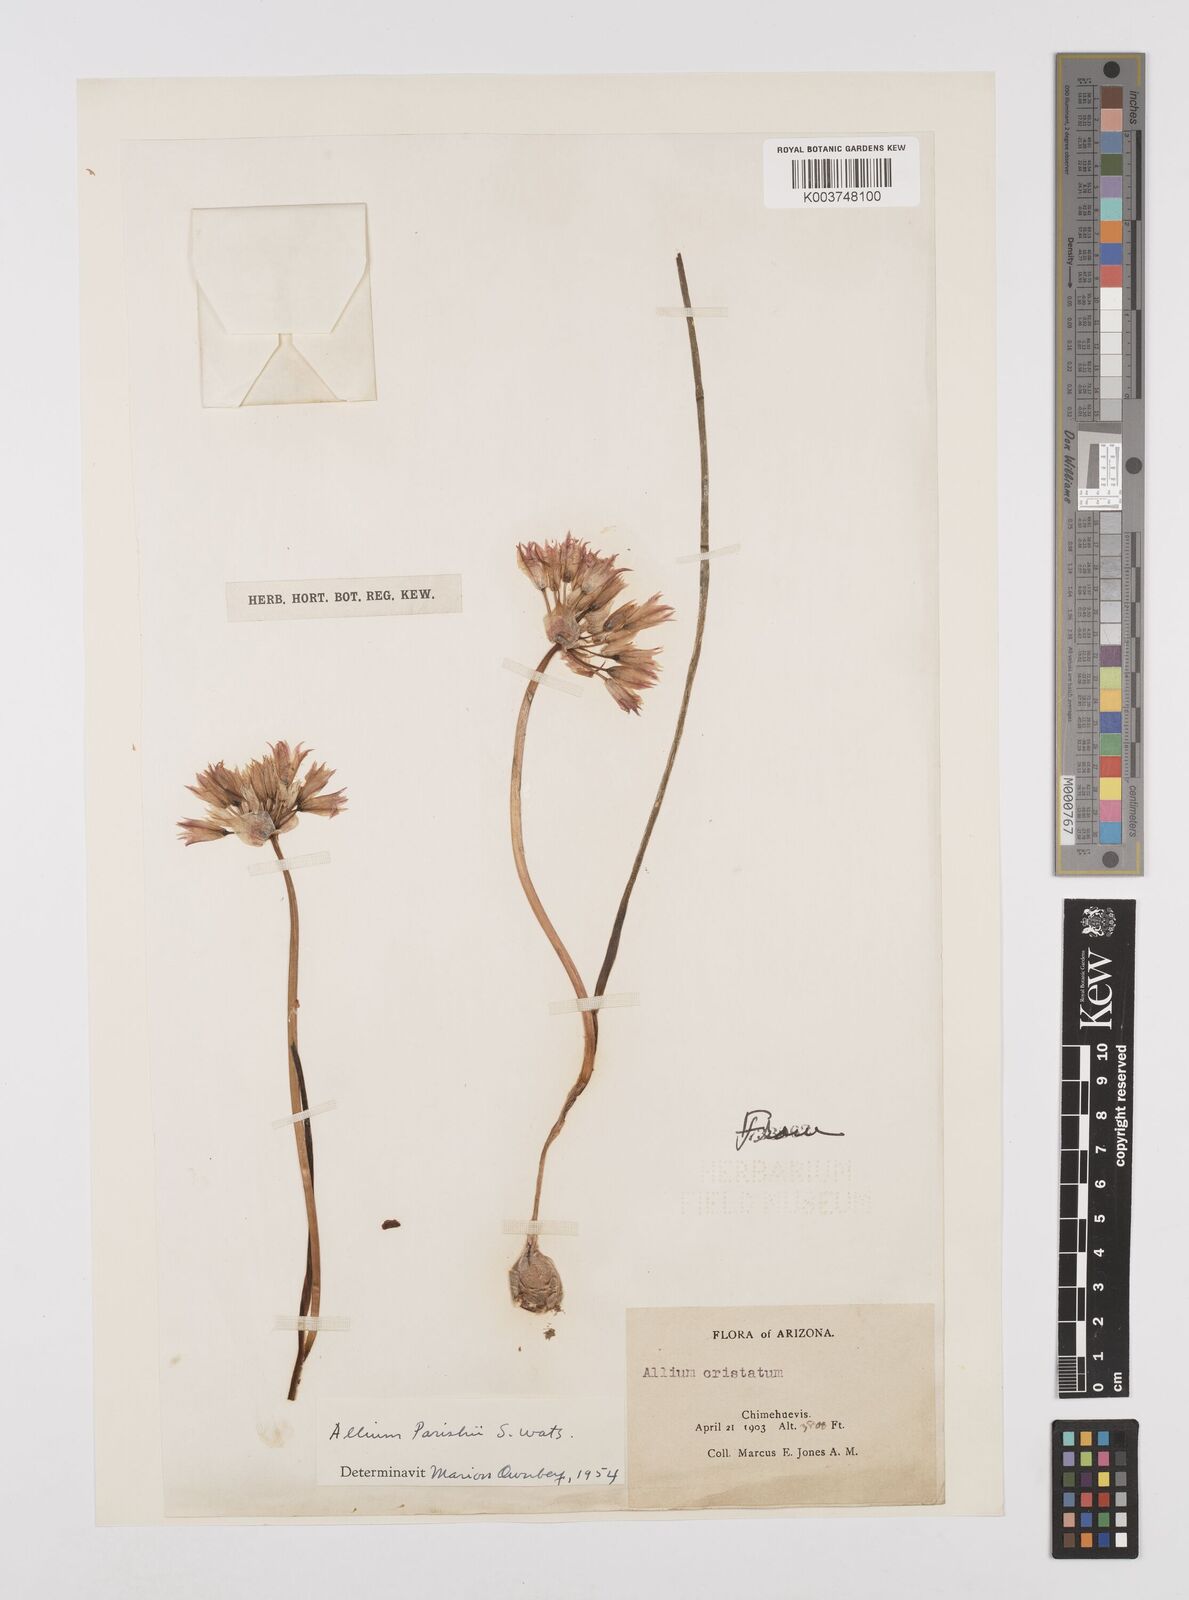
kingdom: Plantae
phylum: Tracheophyta
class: Liliopsida
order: Asparagales
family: Amaryllidaceae
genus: Allium
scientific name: Allium parishii
